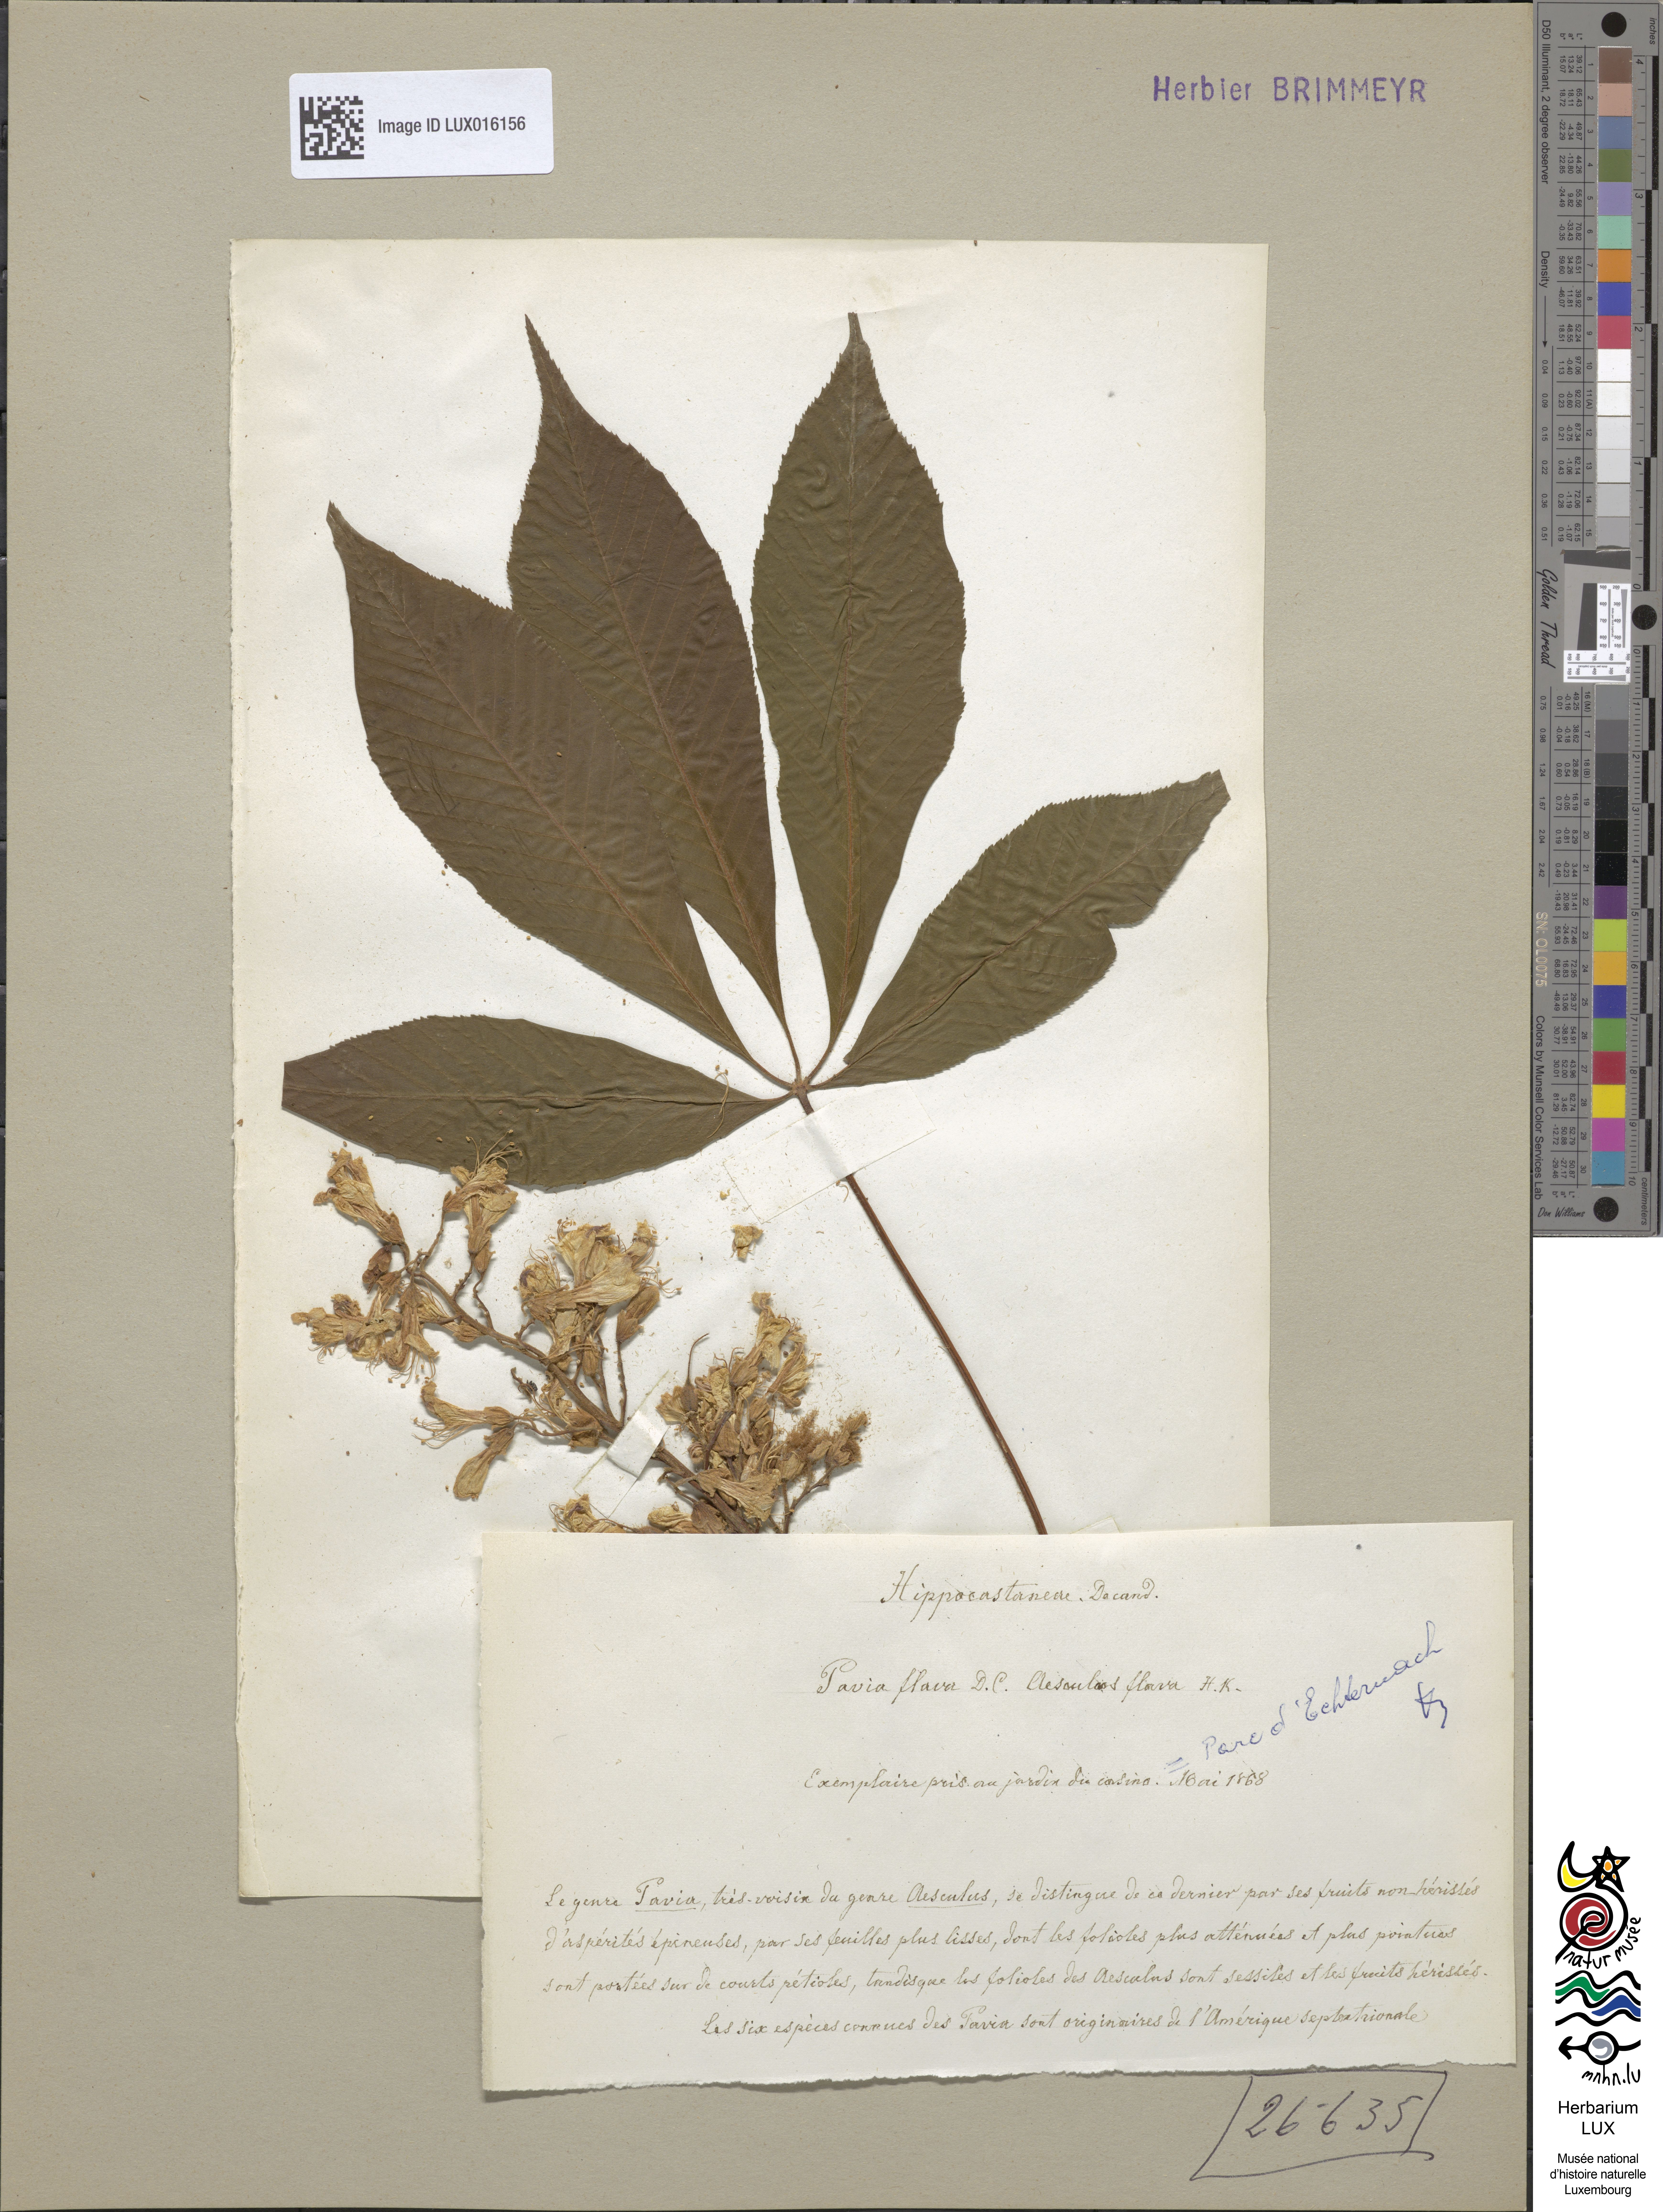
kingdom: Plantae
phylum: Tracheophyta
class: Magnoliopsida
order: Sapindales
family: Sapindaceae
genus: Aesculus
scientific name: Aesculus flava
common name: Yellow buckeye
